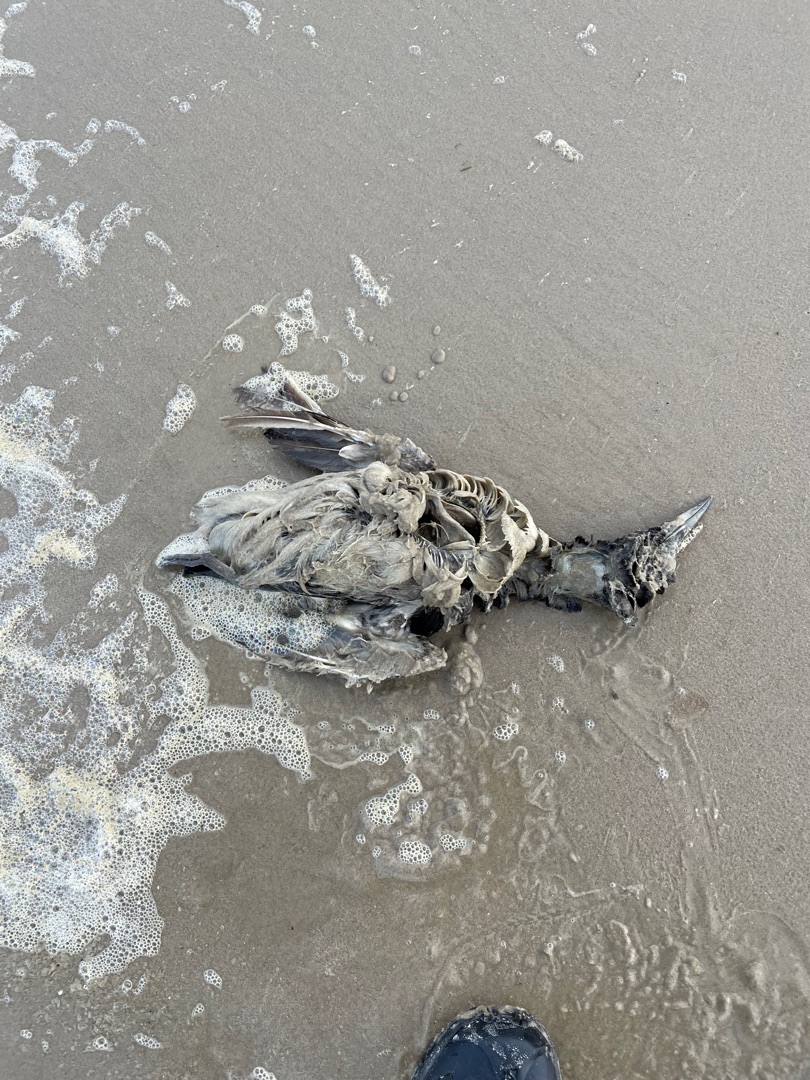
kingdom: Animalia
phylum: Chordata
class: Aves
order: Charadriiformes
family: Alcidae
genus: Uria
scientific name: Uria aalge
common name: Lomvie
